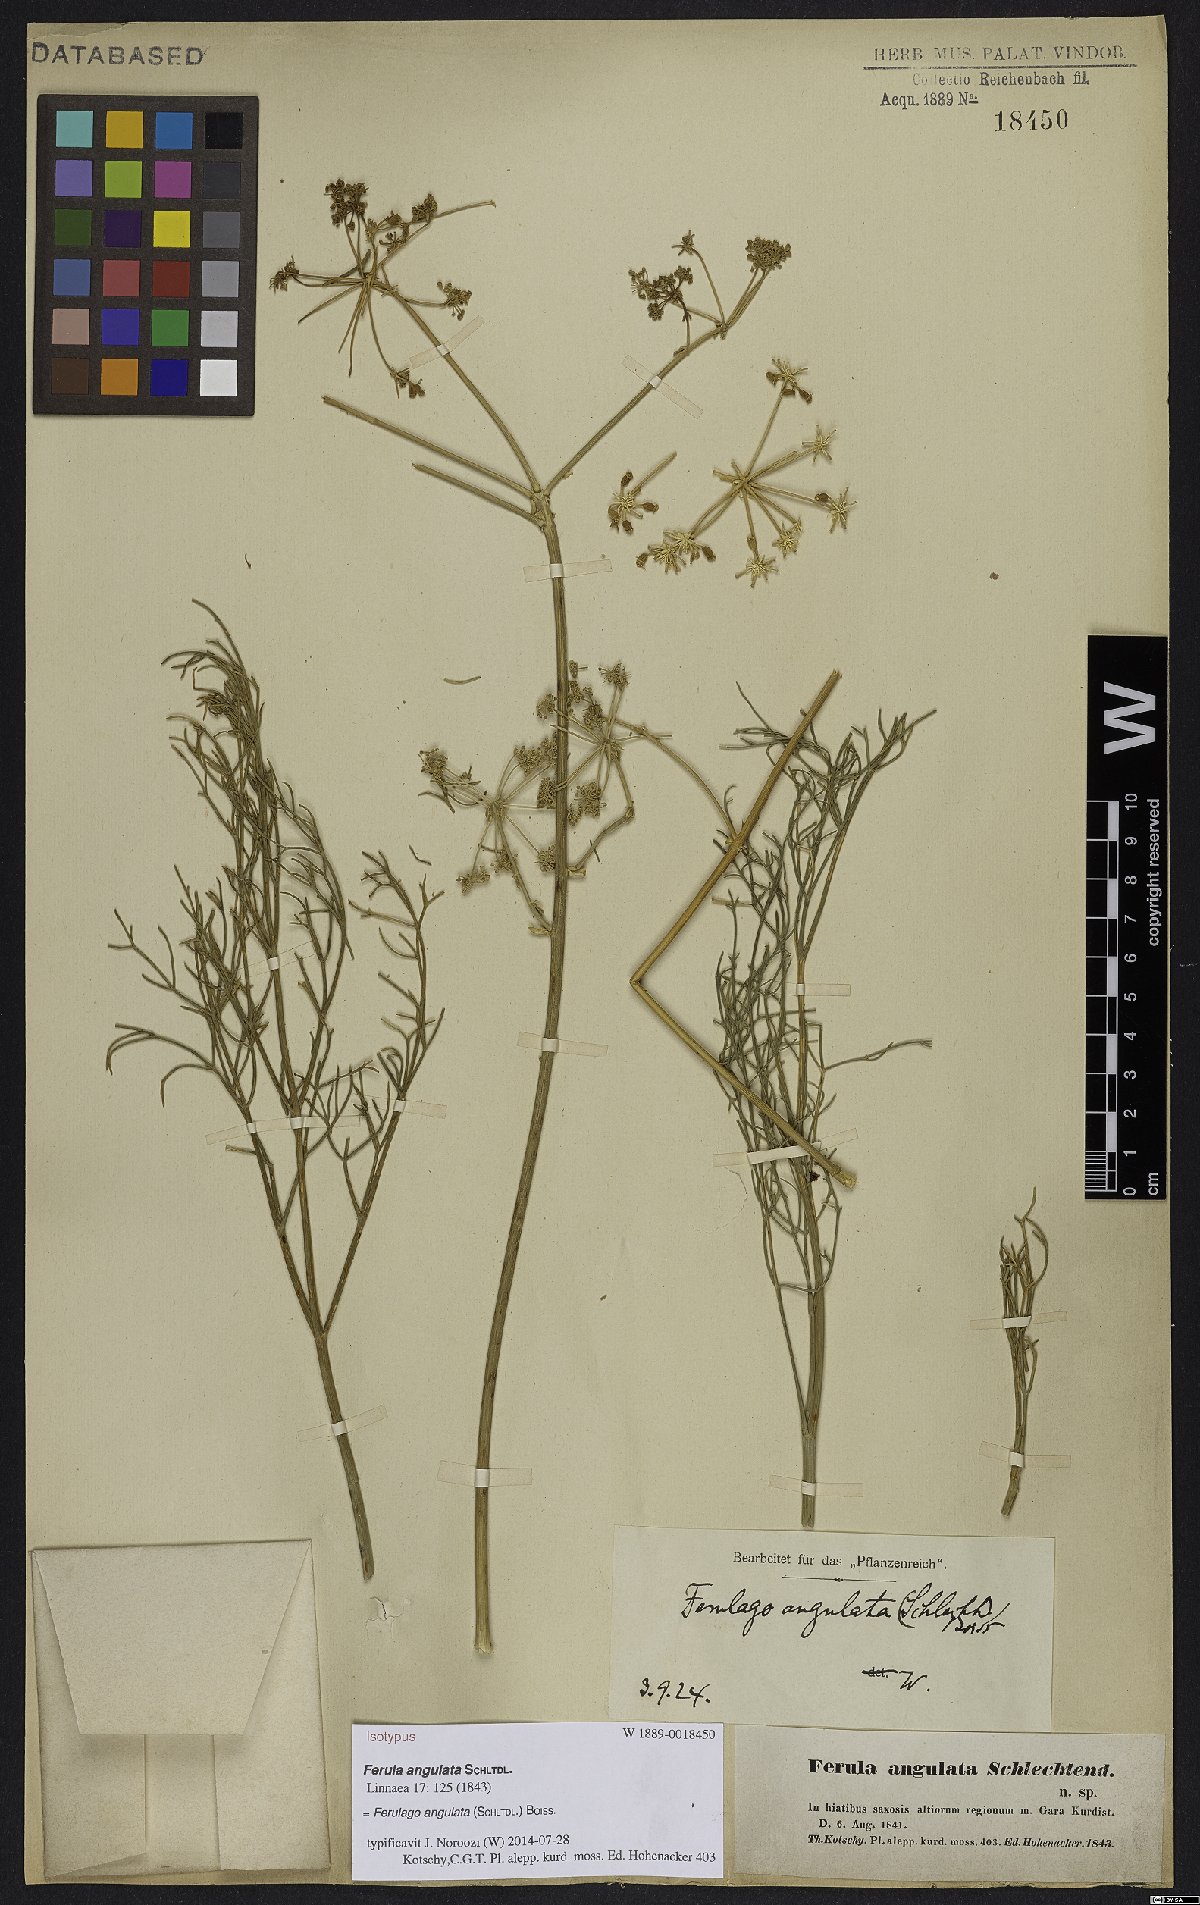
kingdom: Plantae
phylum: Tracheophyta
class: Magnoliopsida
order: Apiales
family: Apiaceae
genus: Ferulago
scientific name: Ferulago angulata
